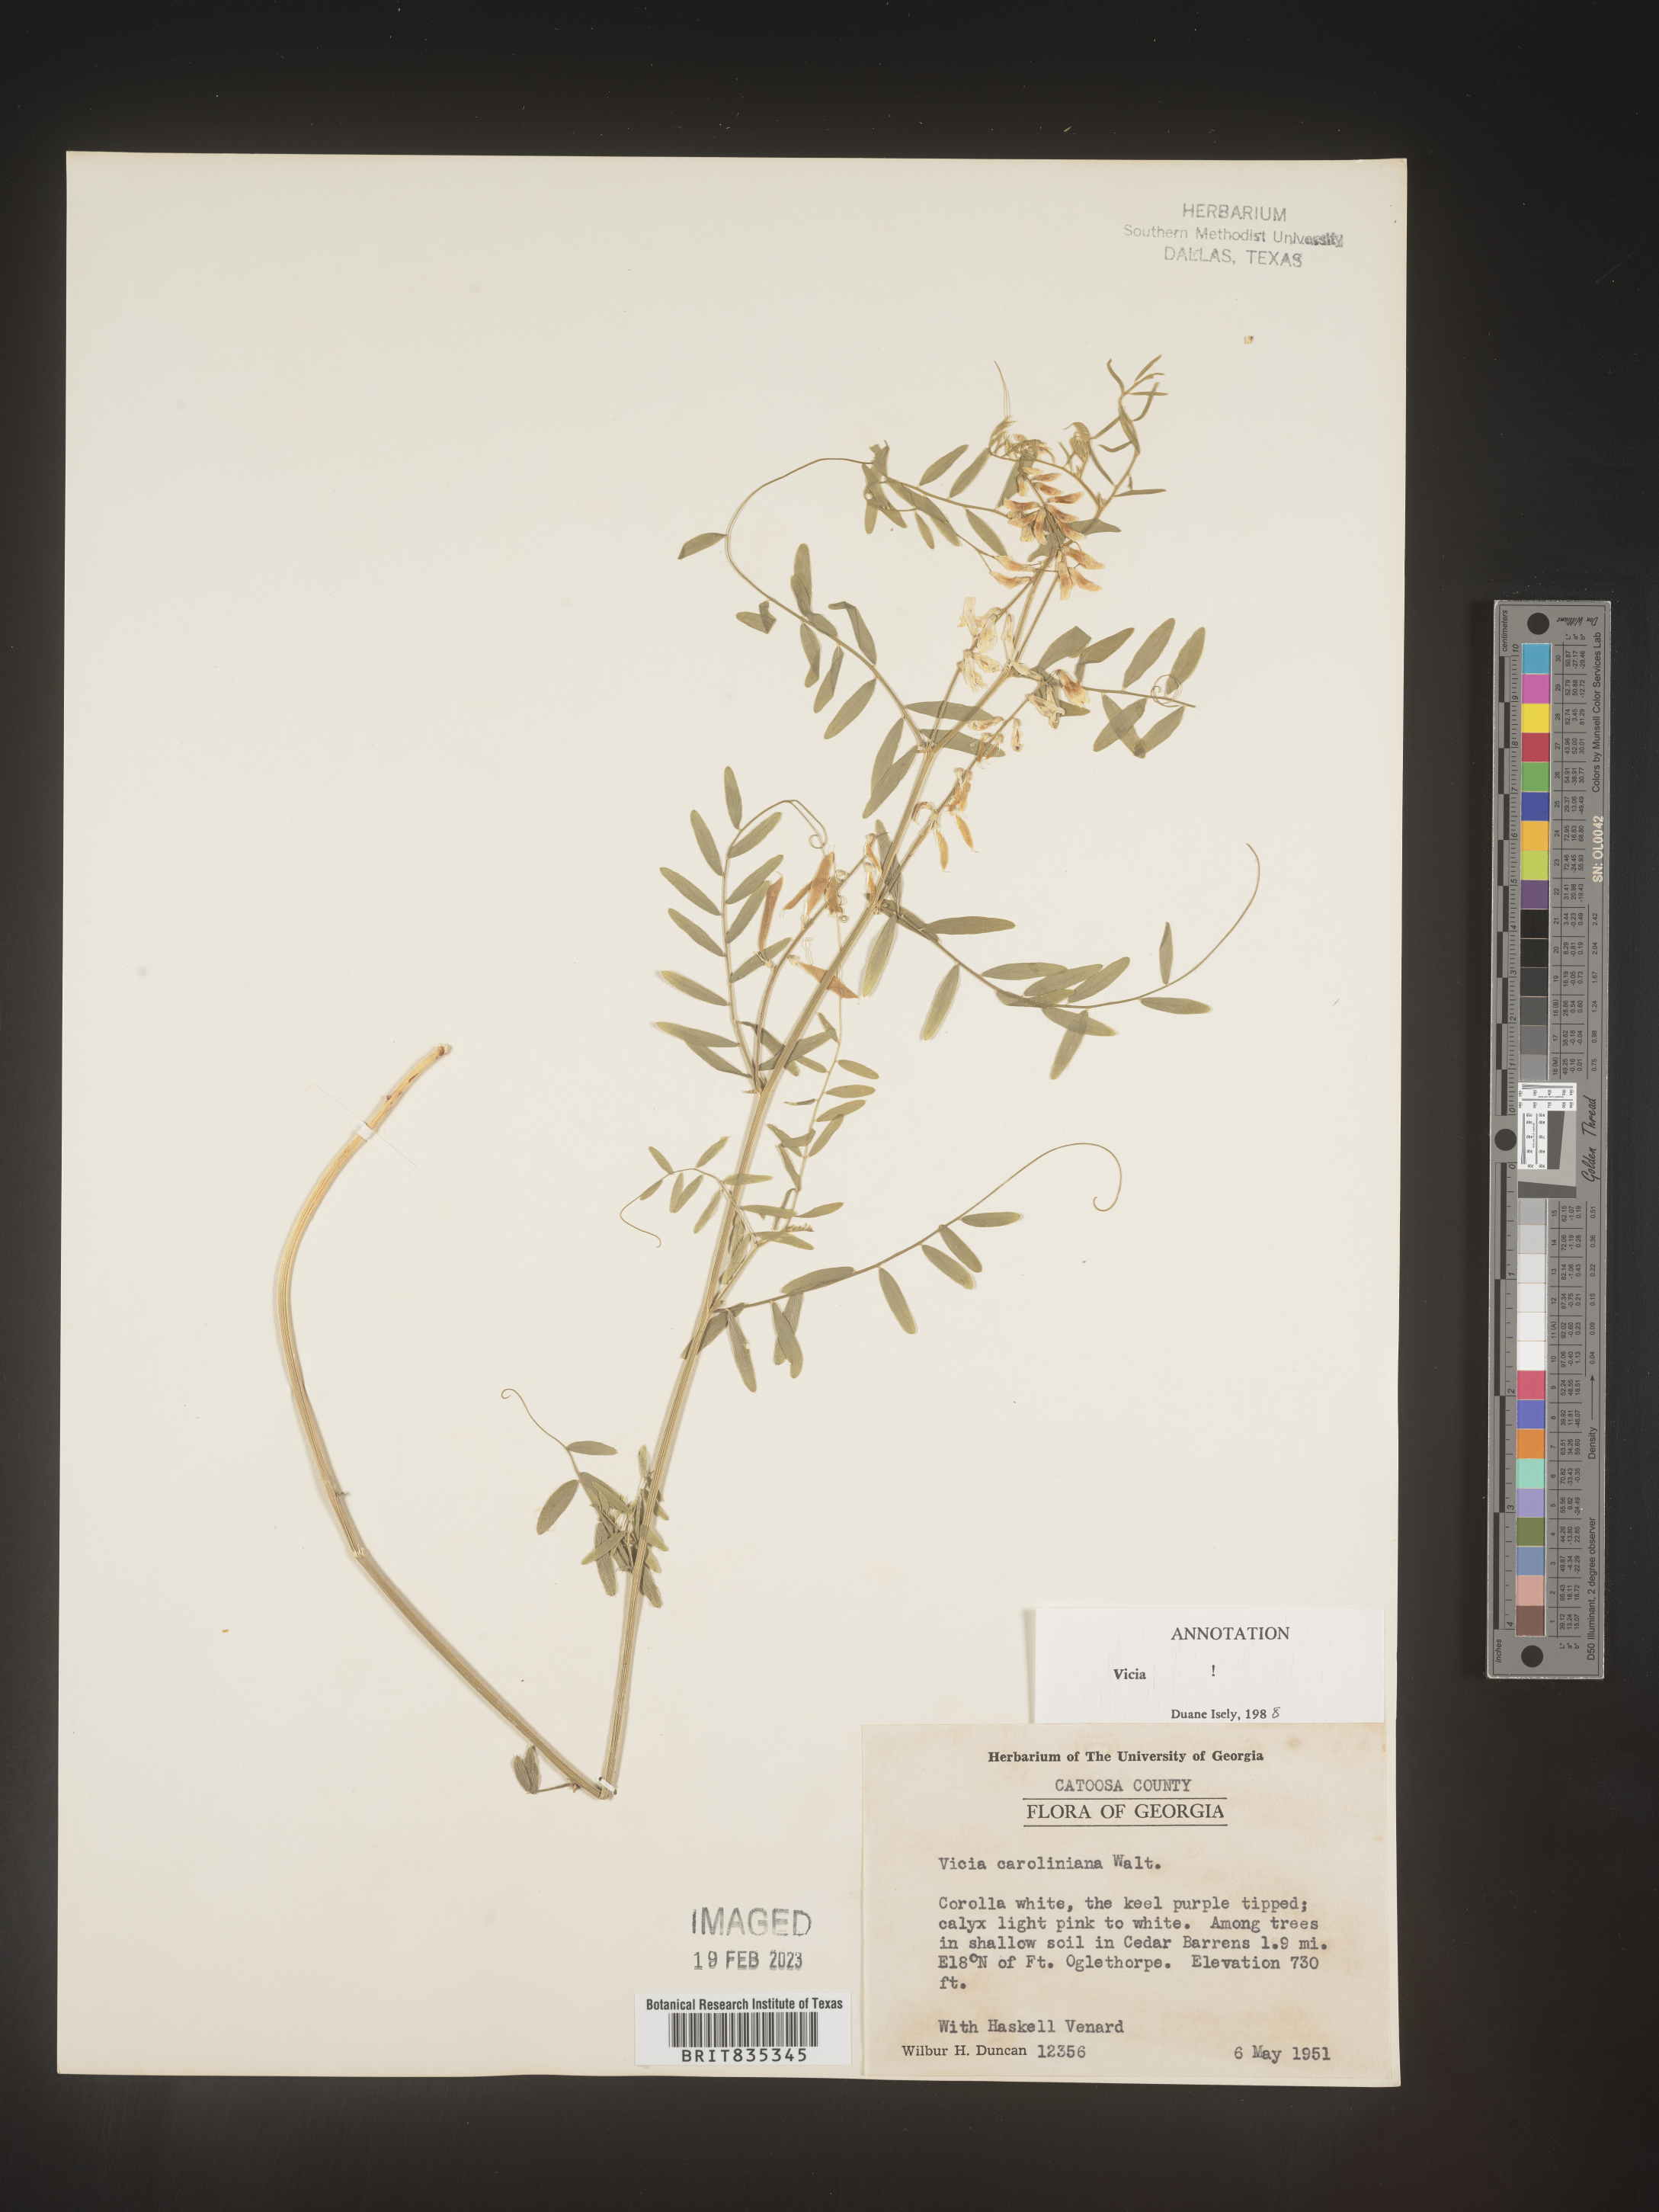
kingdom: Plantae
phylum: Tracheophyta
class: Magnoliopsida
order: Fabales
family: Fabaceae
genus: Vicia
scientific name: Vicia caroliniana
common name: Carolina vetch
